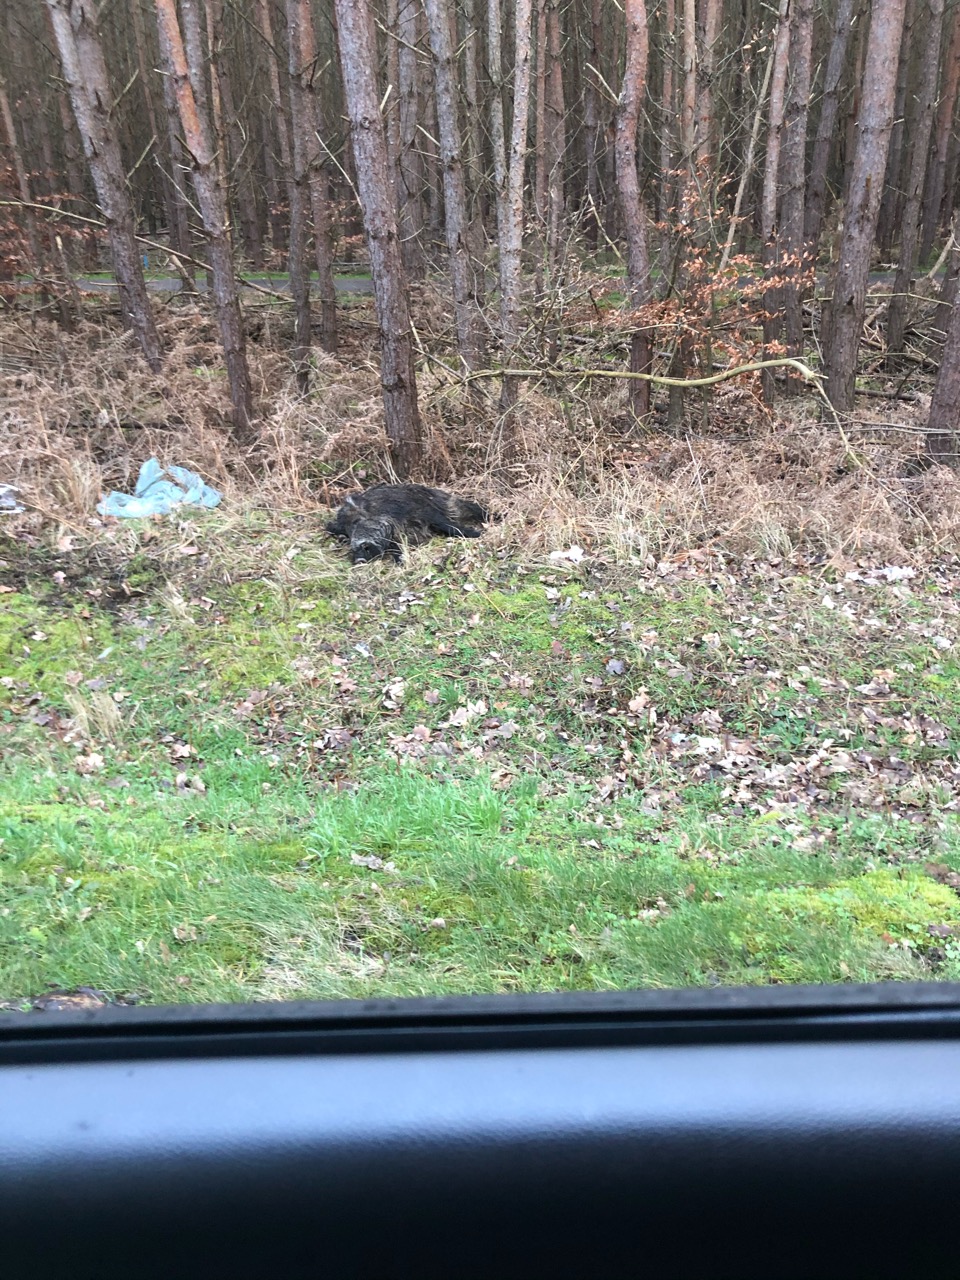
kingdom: Animalia
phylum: Chordata
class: Mammalia
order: Artiodactyla
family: Suidae
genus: Sus
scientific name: Sus scrofa
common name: Wild boar
